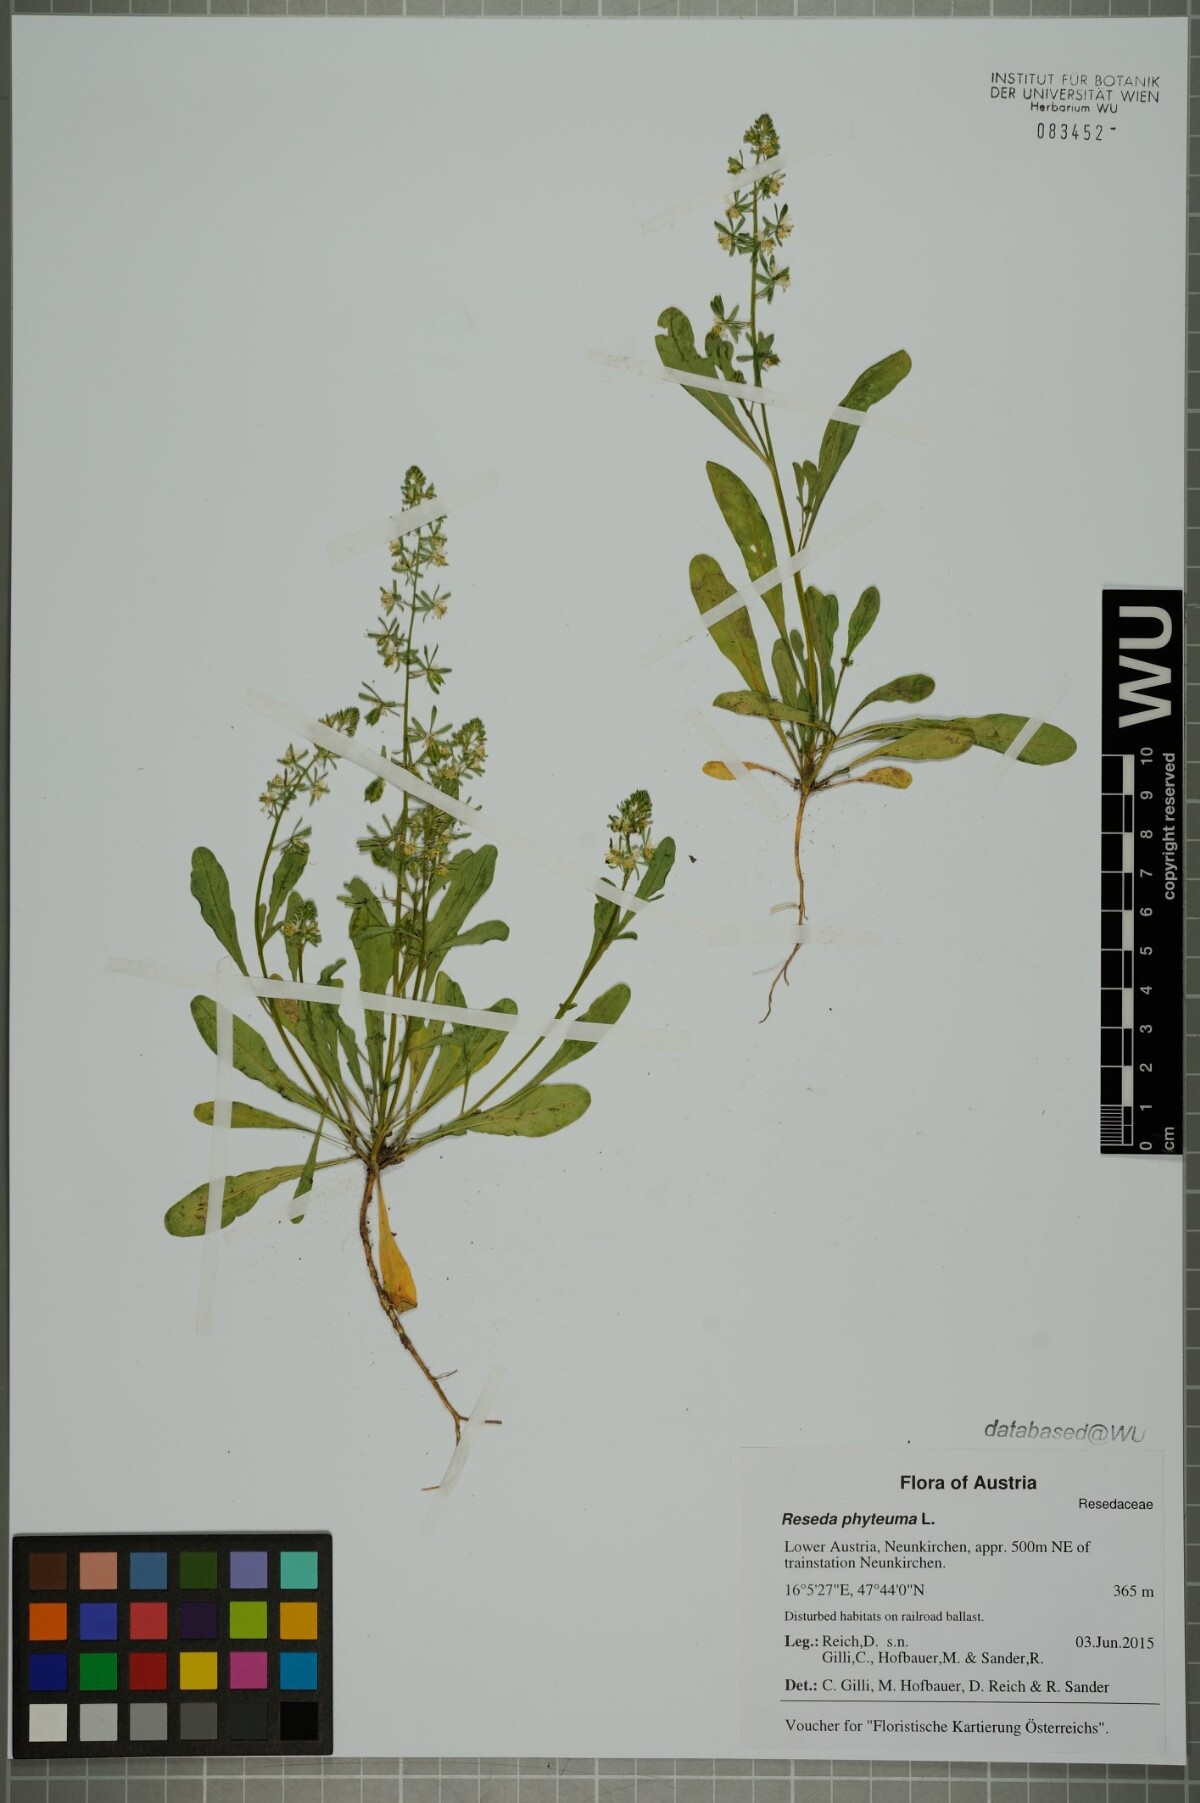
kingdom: Plantae
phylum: Tracheophyta
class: Magnoliopsida
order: Brassicales
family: Resedaceae
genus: Reseda
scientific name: Reseda phyteuma
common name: Corn mignonette
